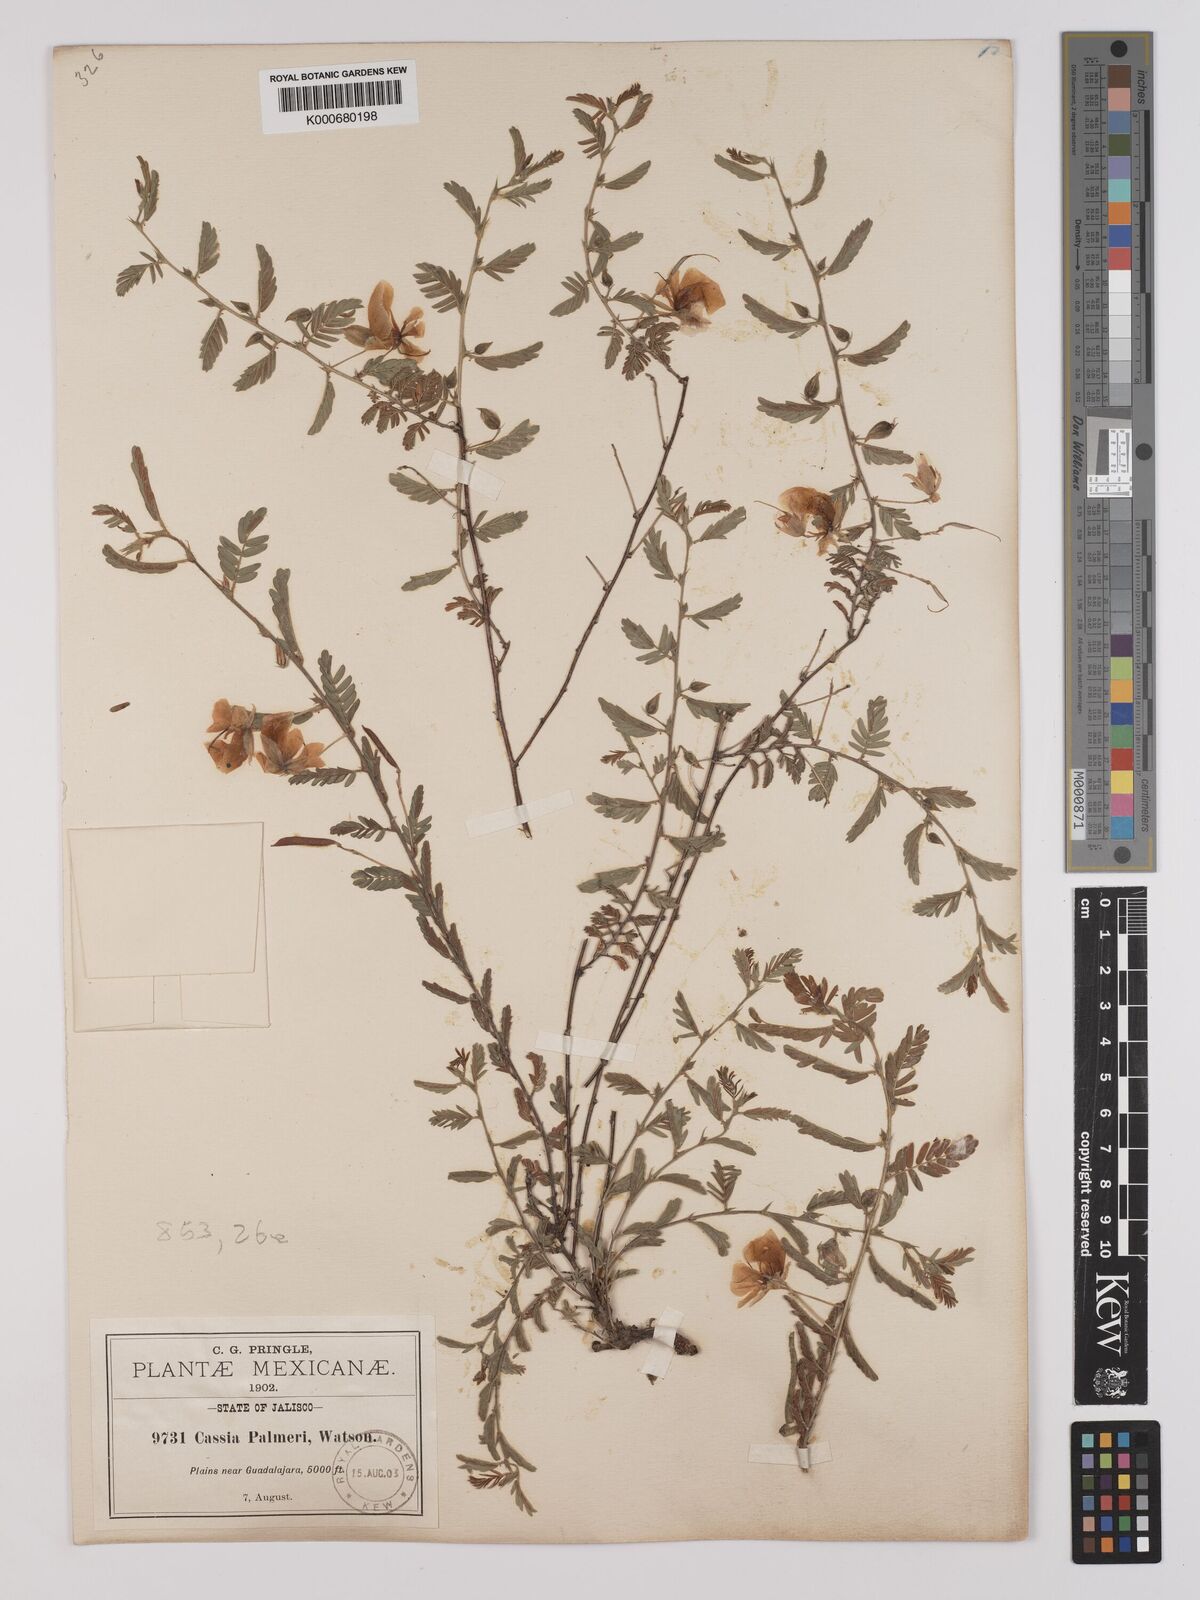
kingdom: Plantae
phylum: Tracheophyta
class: Magnoliopsida
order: Fabales
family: Fabaceae
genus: Chamaecrista
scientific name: Chamaecrista serpens
